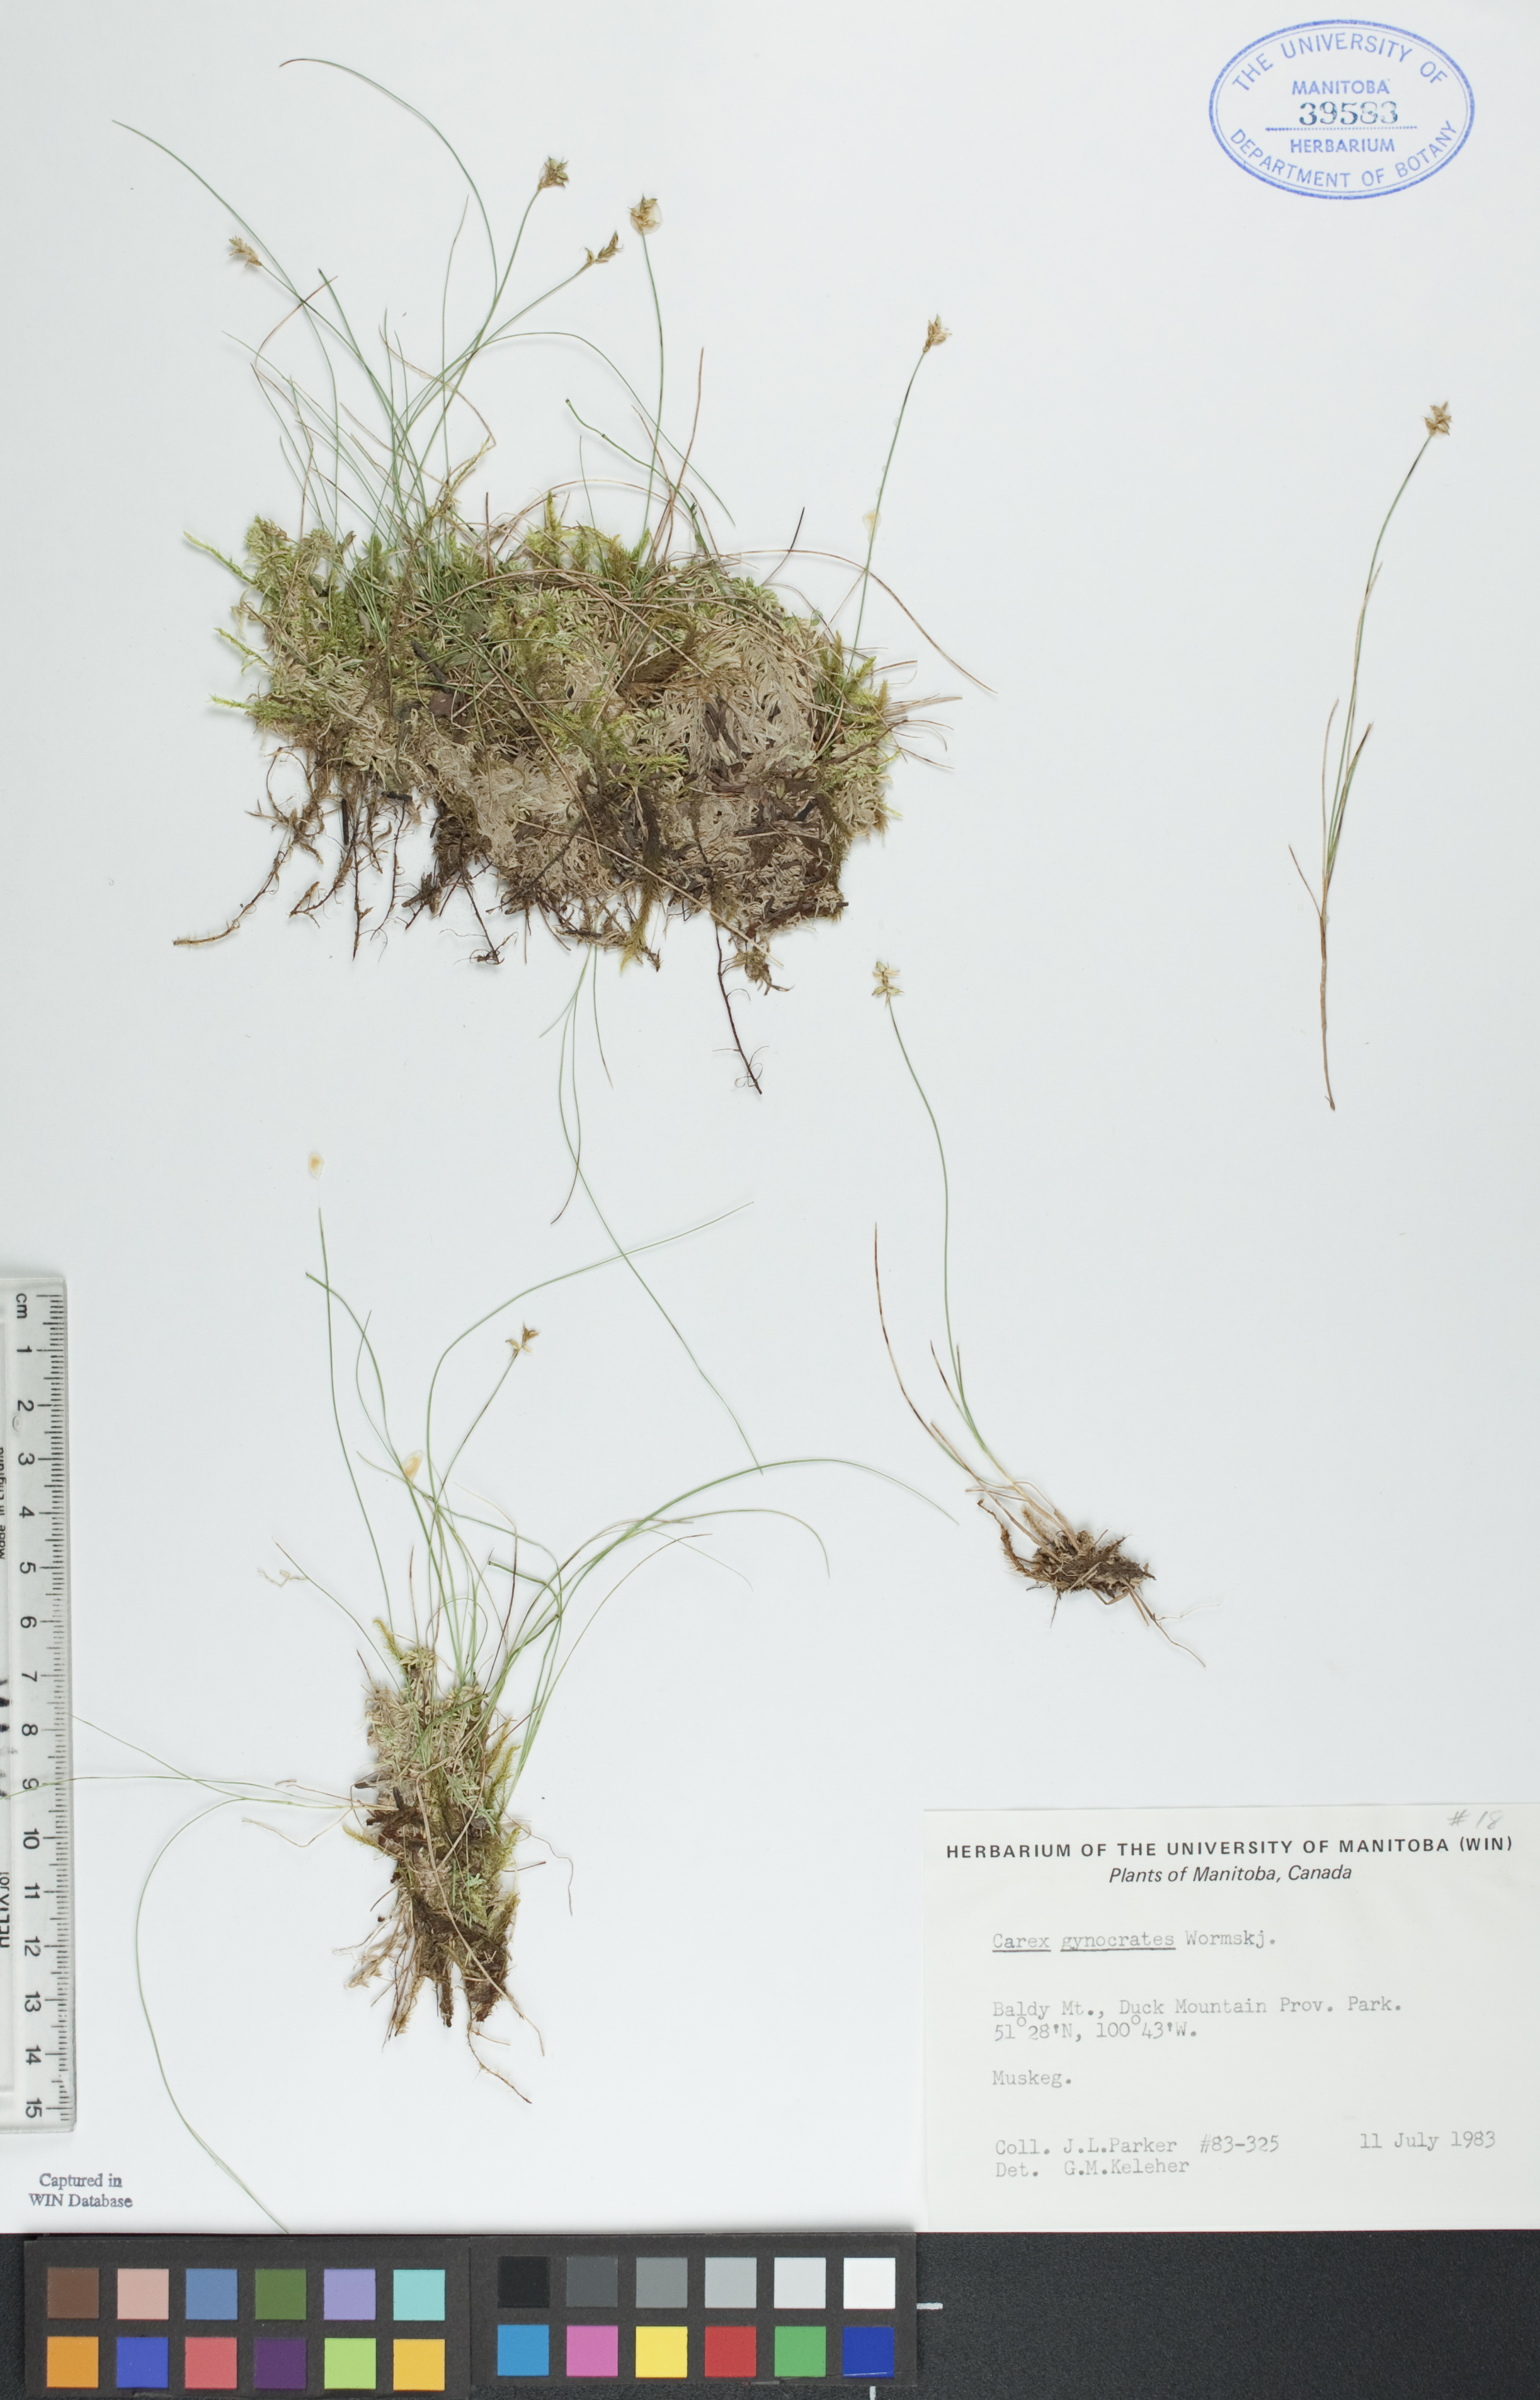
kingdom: Plantae
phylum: Tracheophyta
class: Liliopsida
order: Poales
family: Cyperaceae
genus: Carex
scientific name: Carex nardina
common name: Nard sedge
